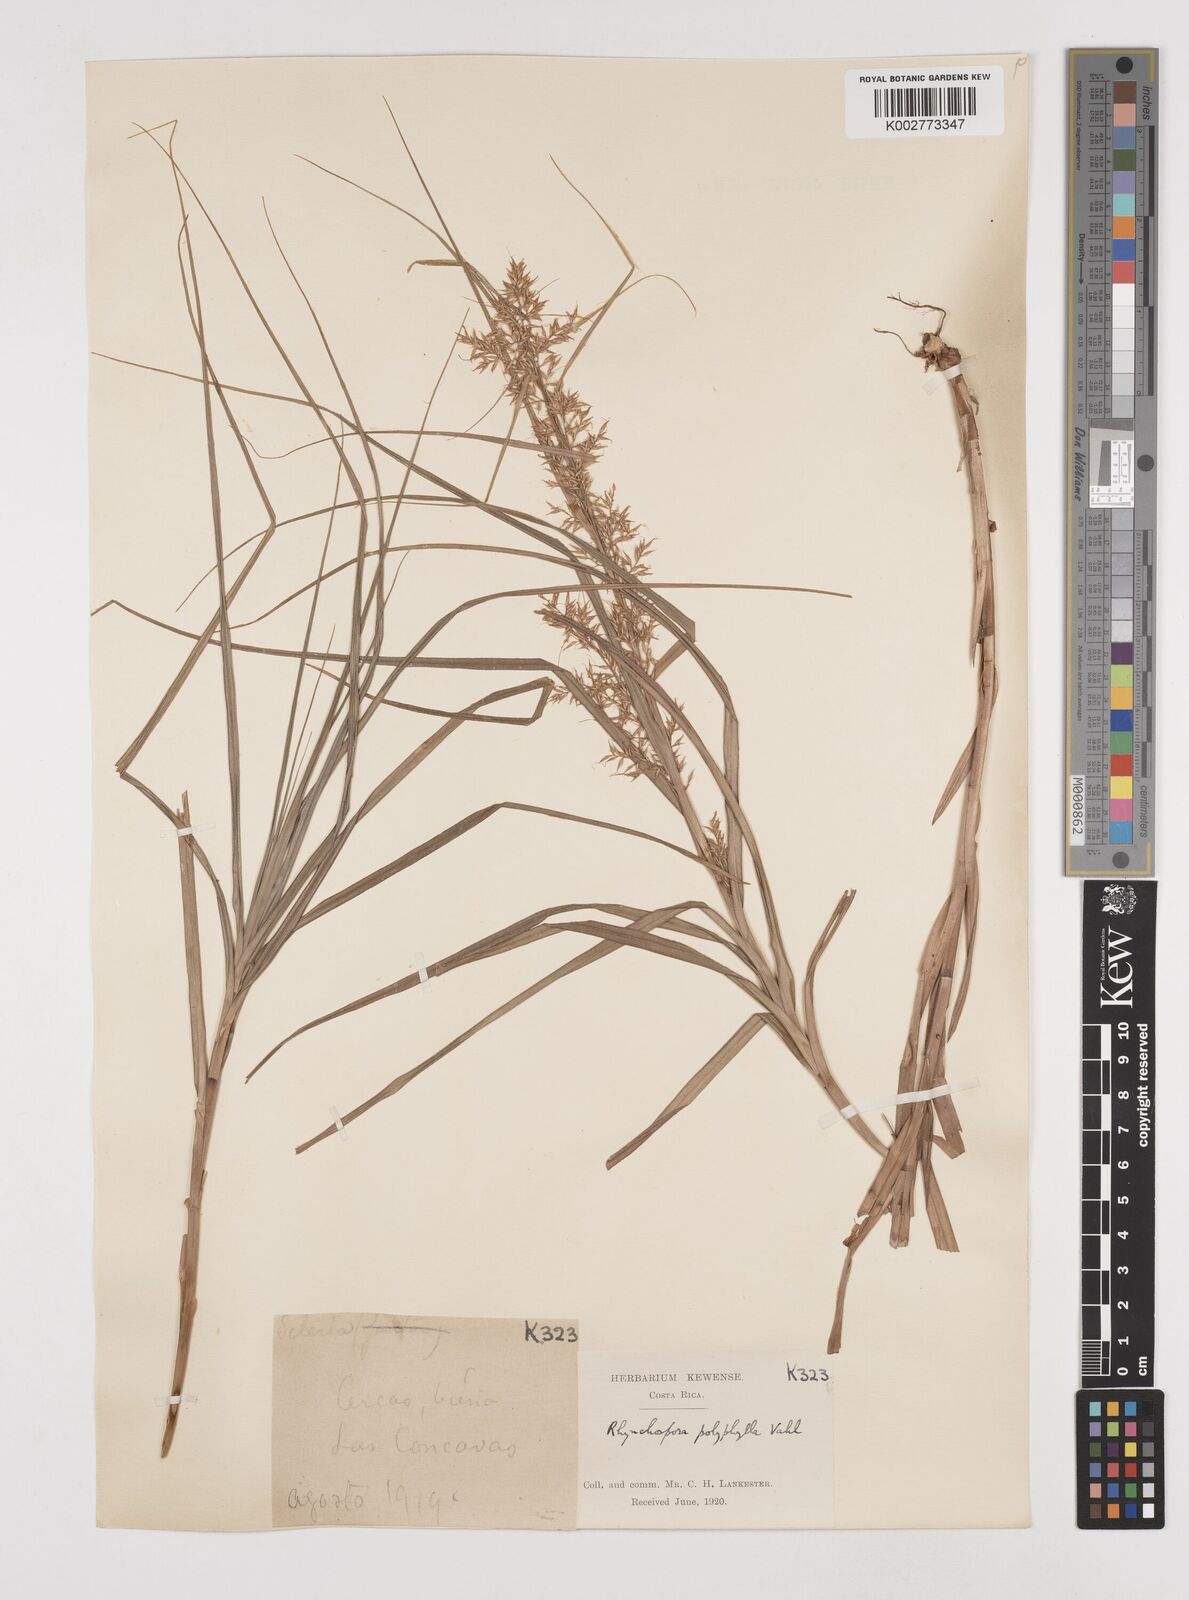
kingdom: Plantae
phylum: Tracheophyta
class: Liliopsida
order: Poales
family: Cyperaceae
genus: Rhynchospora
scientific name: Rhynchospora polyphylla
